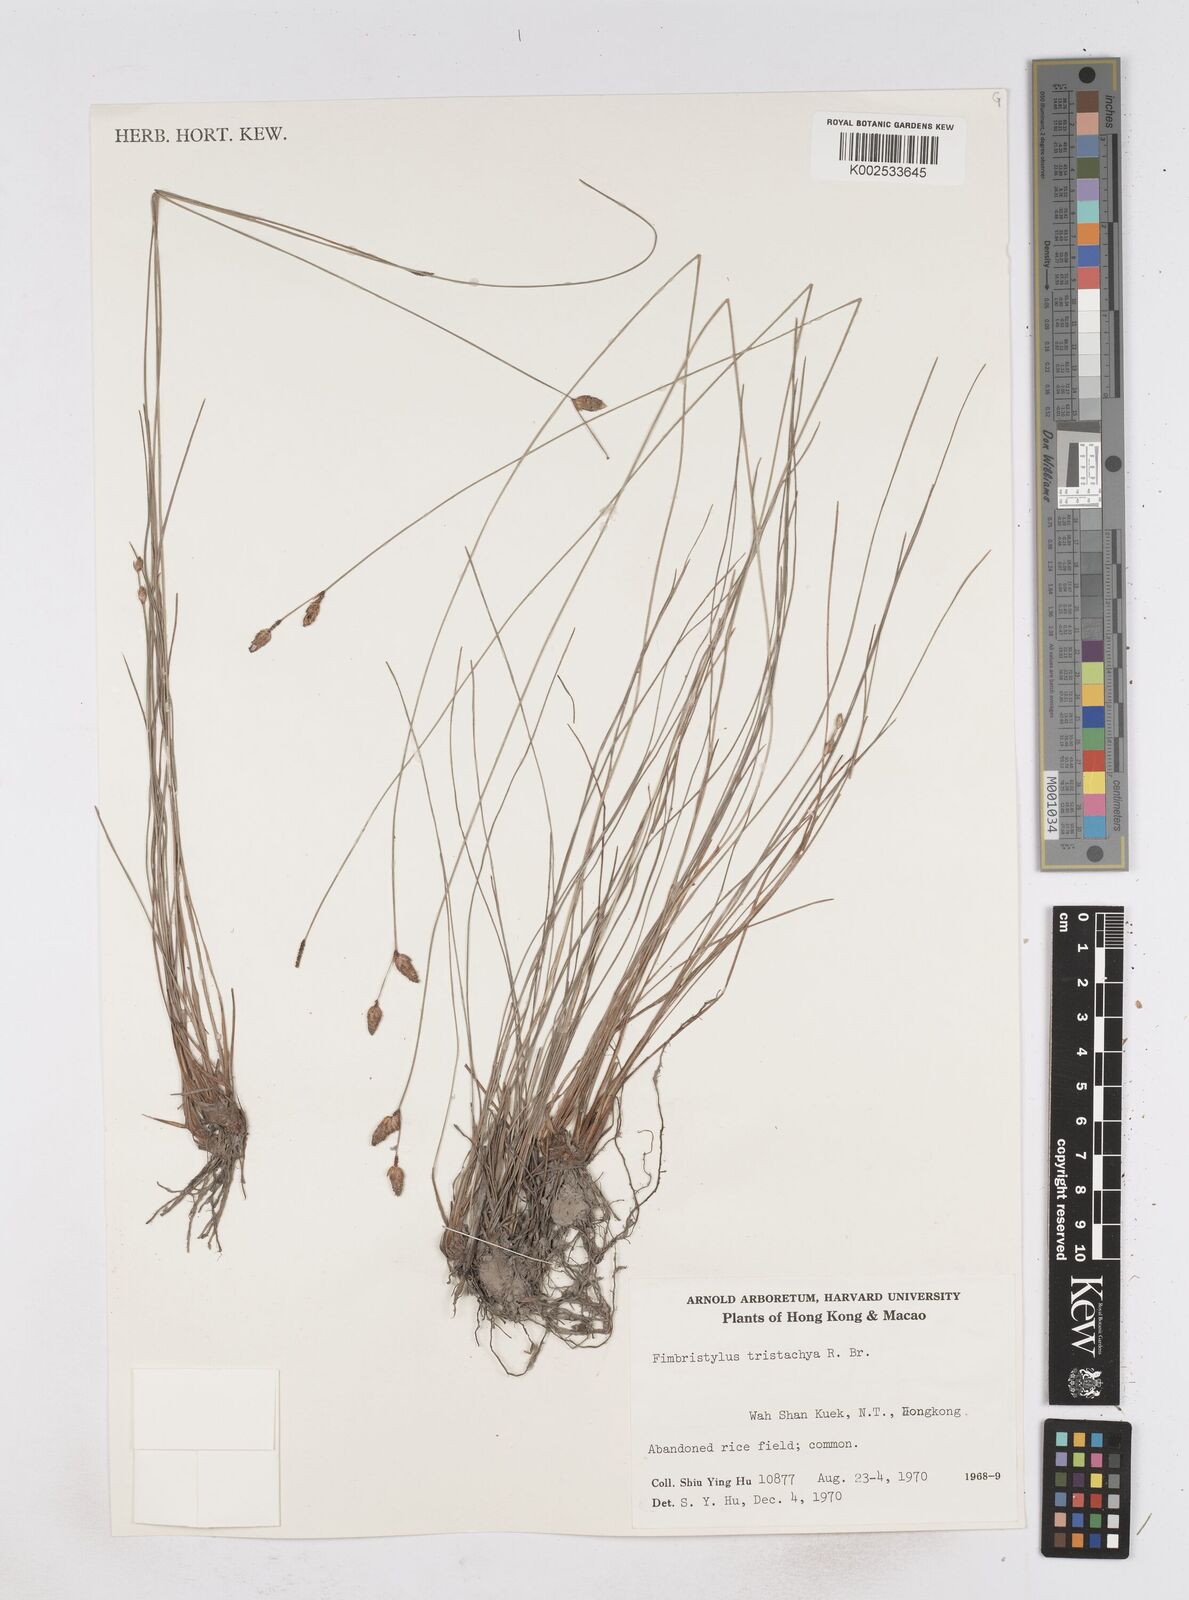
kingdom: Plantae
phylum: Tracheophyta
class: Liliopsida
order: Poales
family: Cyperaceae
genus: Fimbristylis
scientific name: Fimbristylis tristachya
